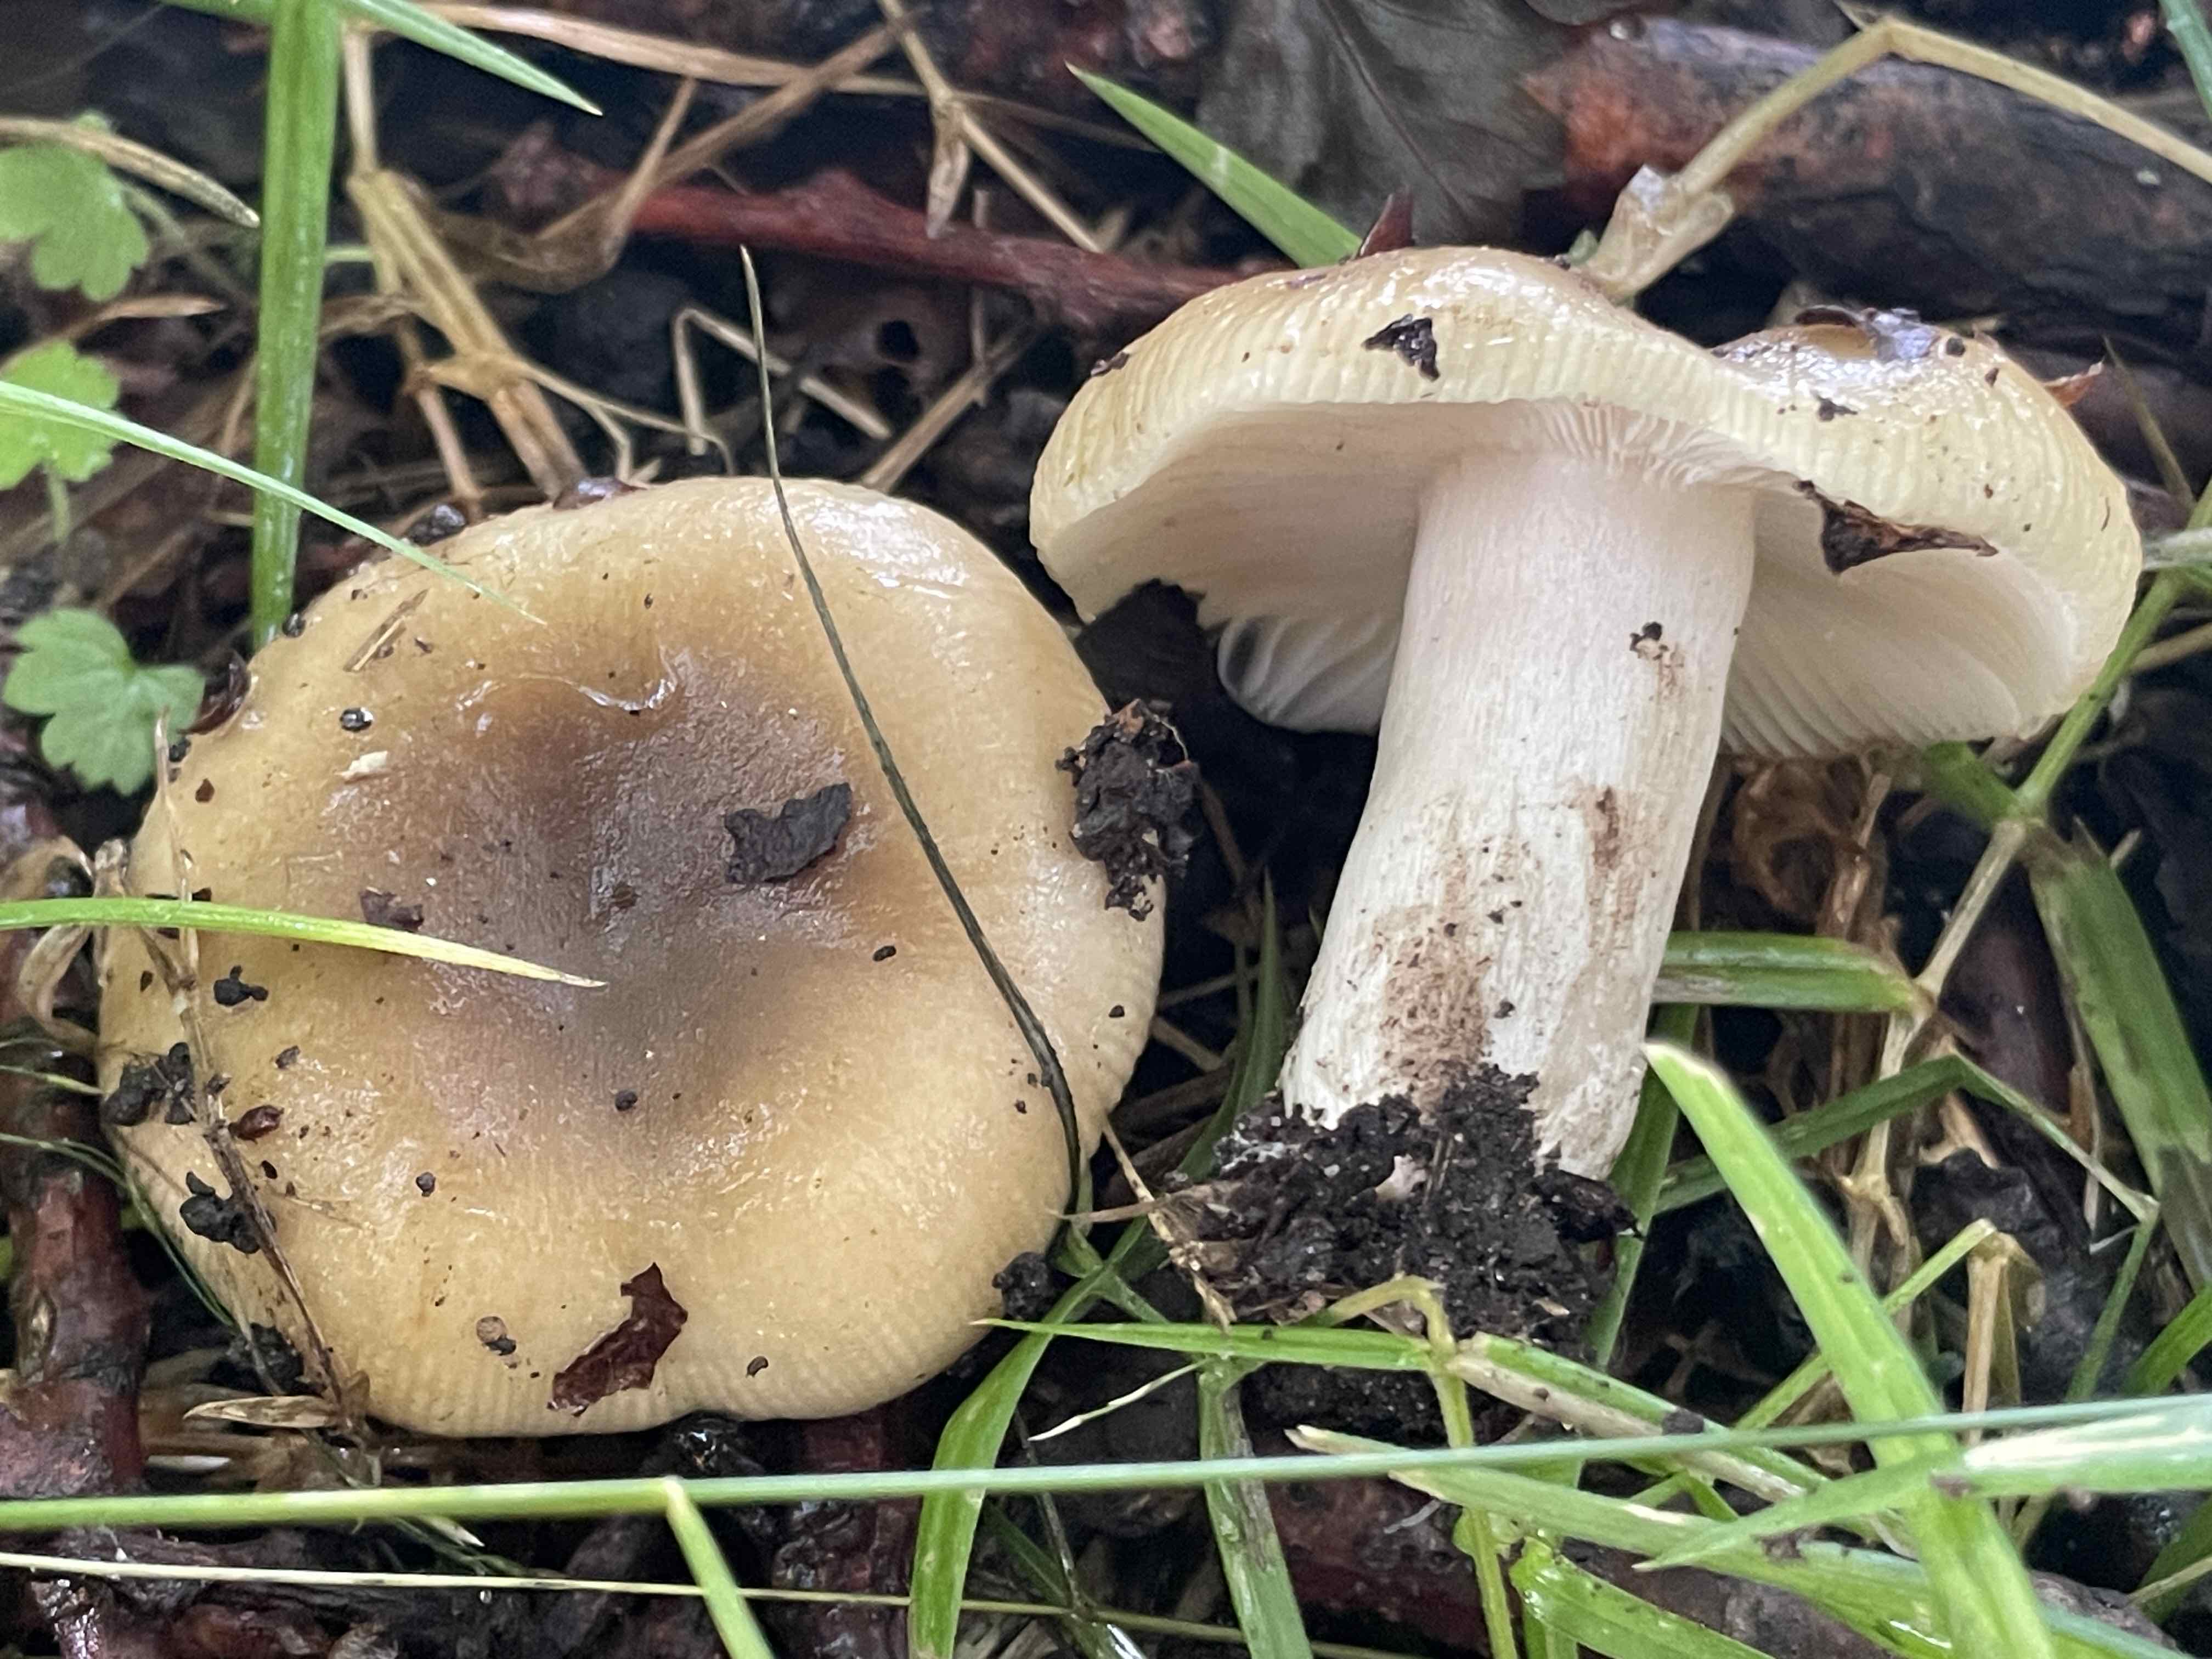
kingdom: Fungi
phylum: Basidiomycota
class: Agaricomycetes
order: Russulales
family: Russulaceae
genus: Russula
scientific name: Russula amoenolens
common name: skarp kam-skørhat
